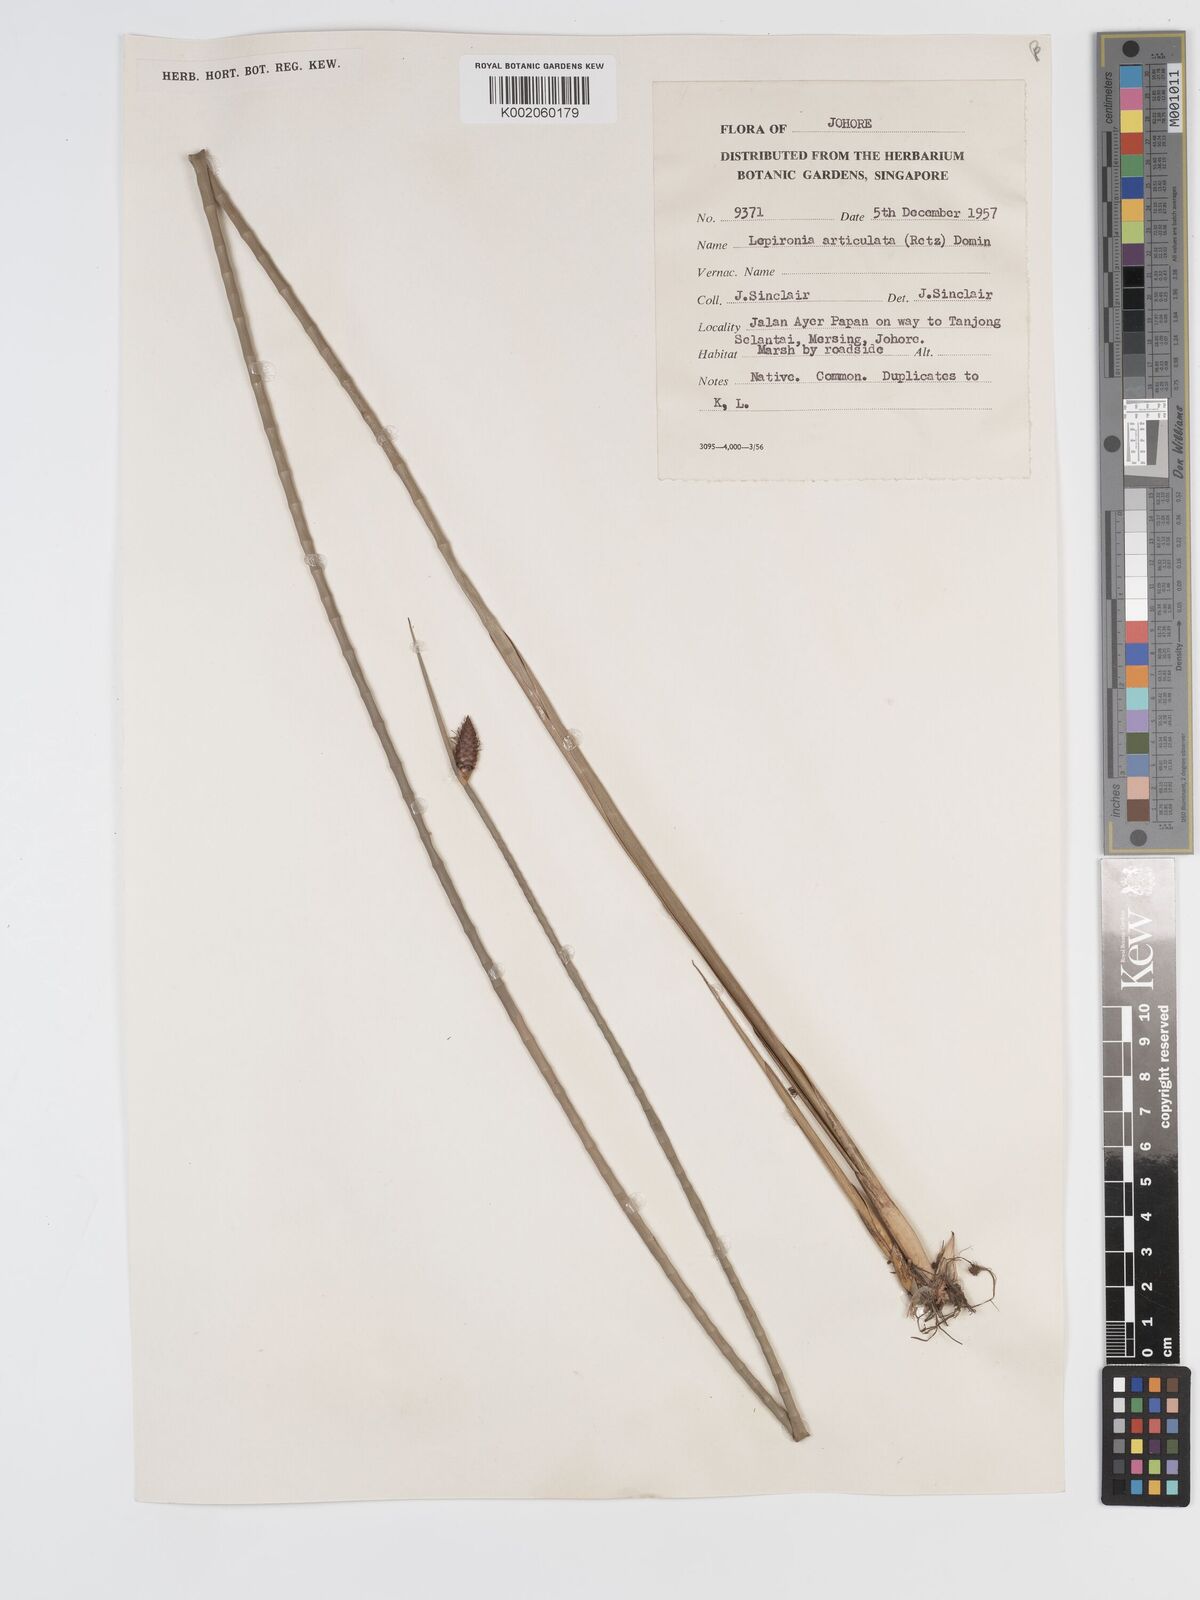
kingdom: Plantae
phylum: Tracheophyta
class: Liliopsida
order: Poales
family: Cyperaceae
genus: Lepironia
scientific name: Lepironia articulata
